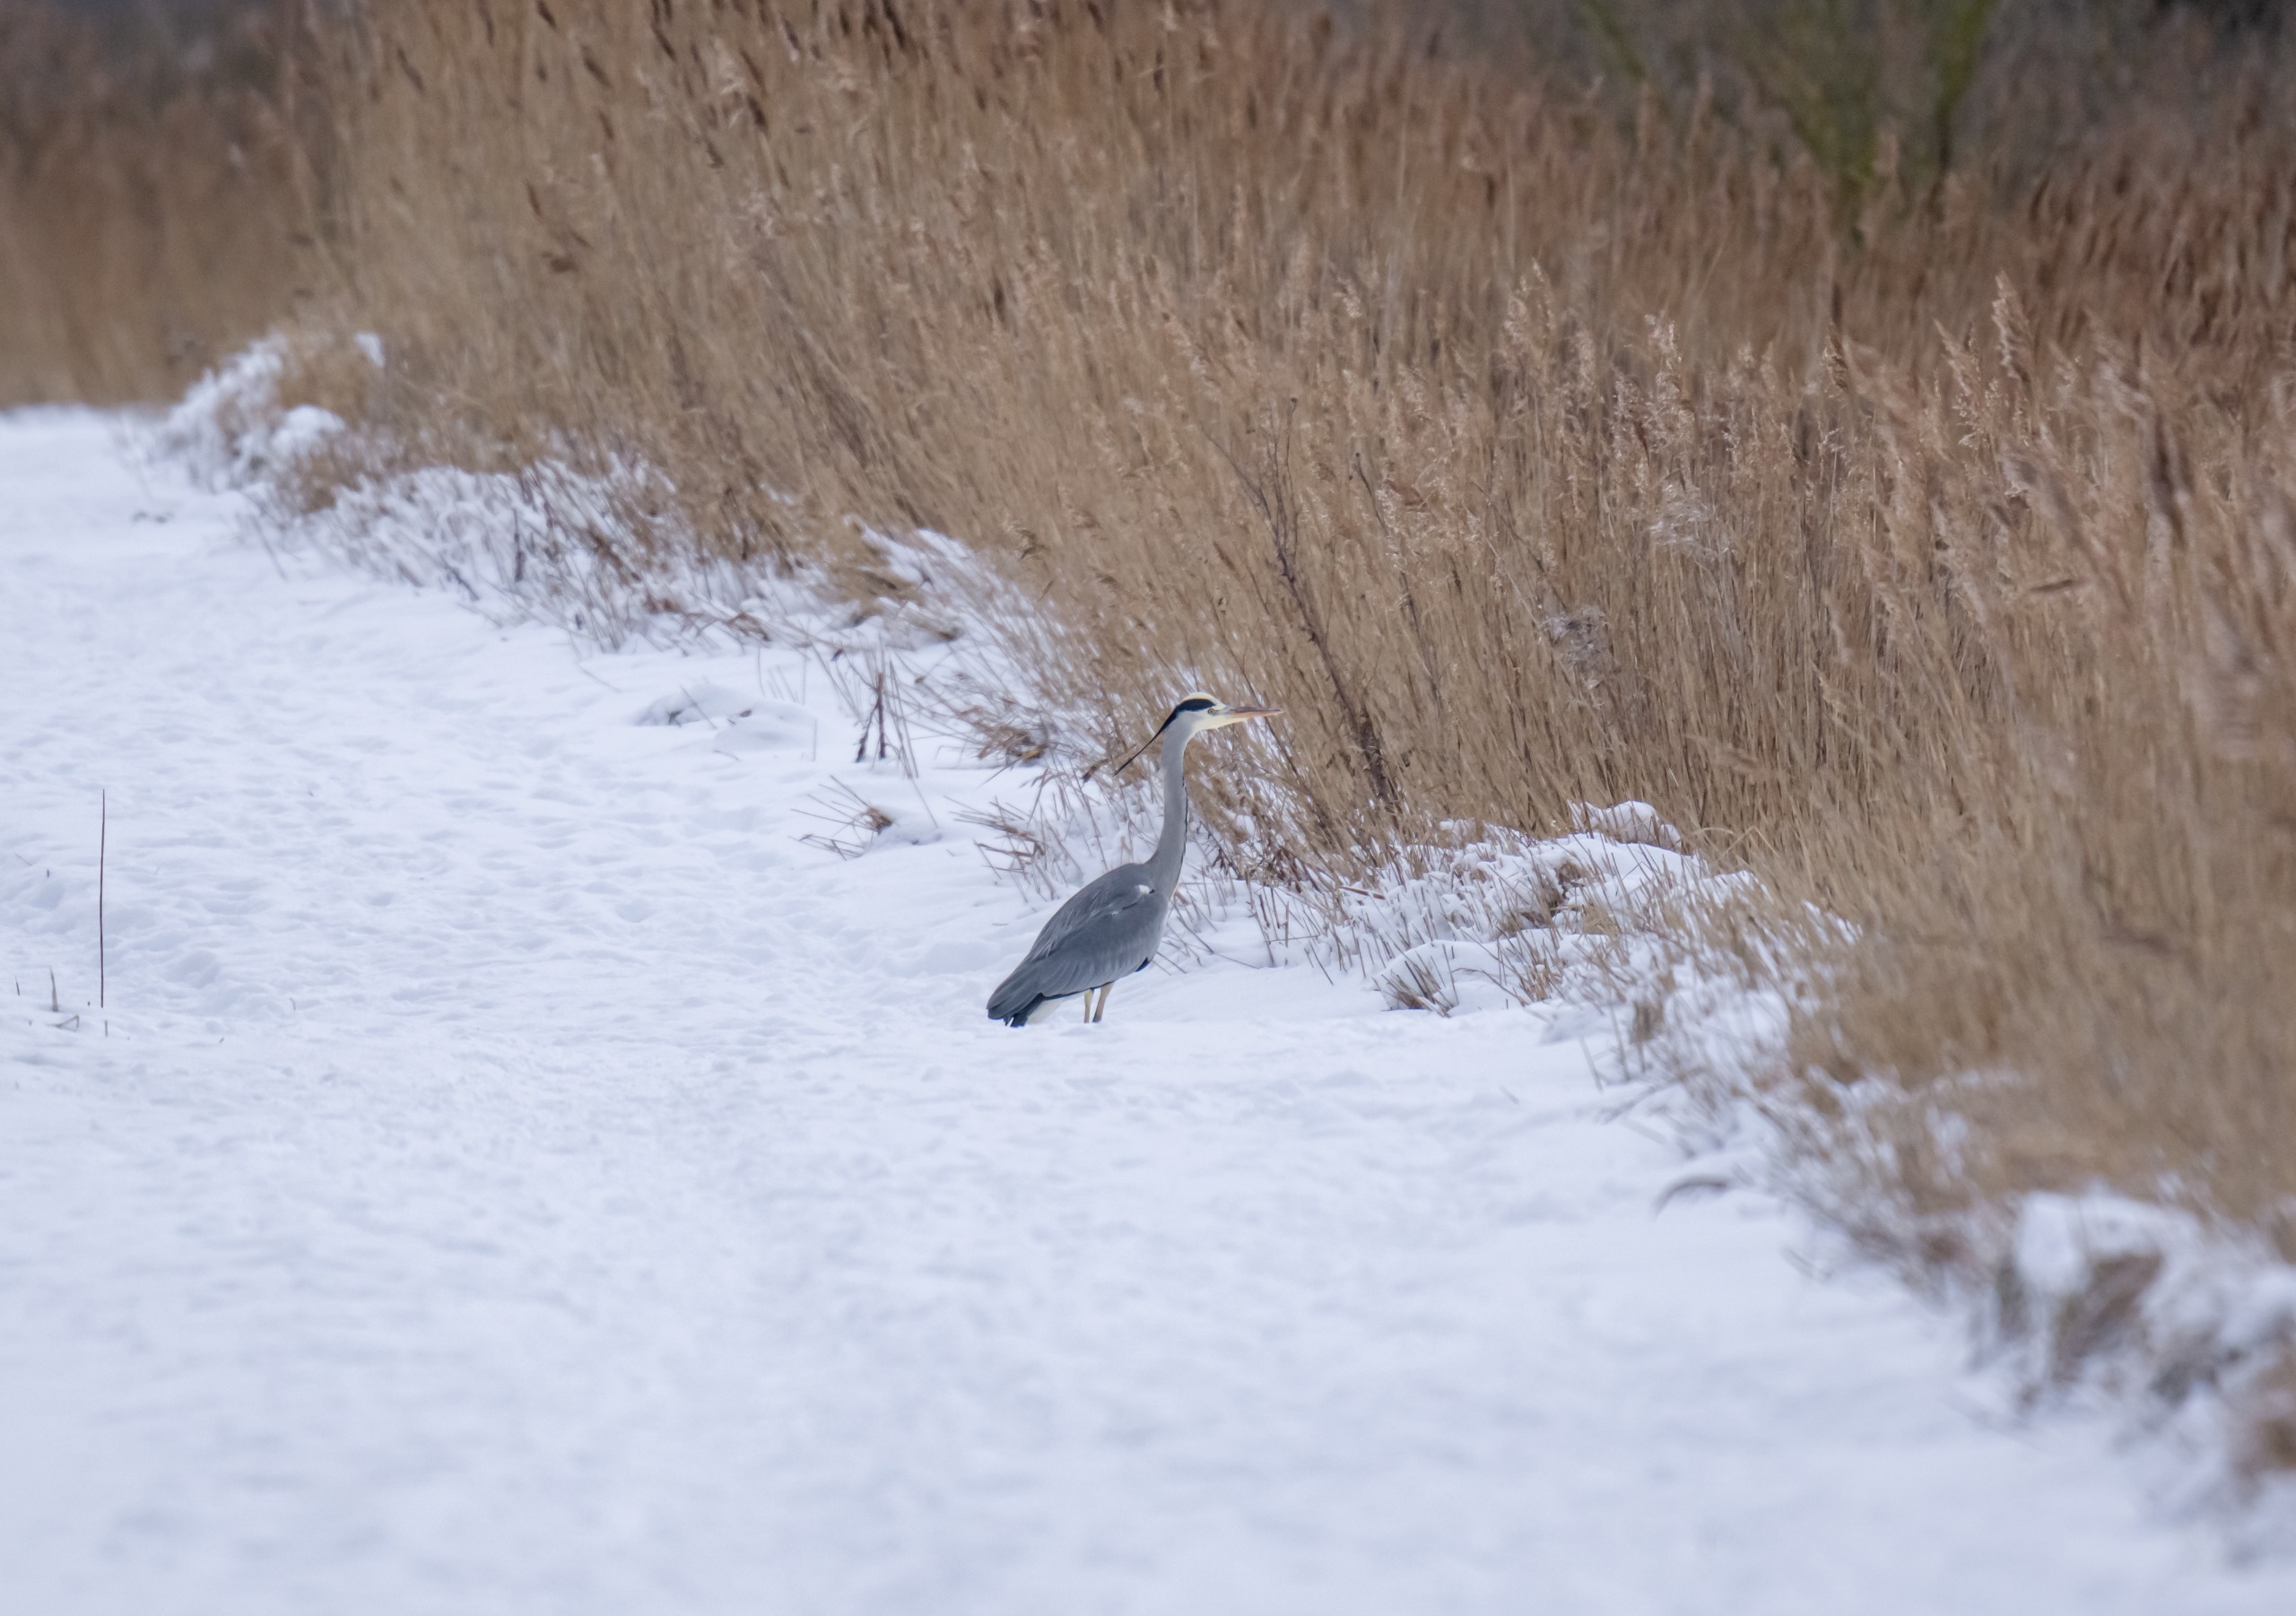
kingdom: Animalia
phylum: Chordata
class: Aves
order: Pelecaniformes
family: Ardeidae
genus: Ardea
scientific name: Ardea cinerea
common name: Fiskehejre
